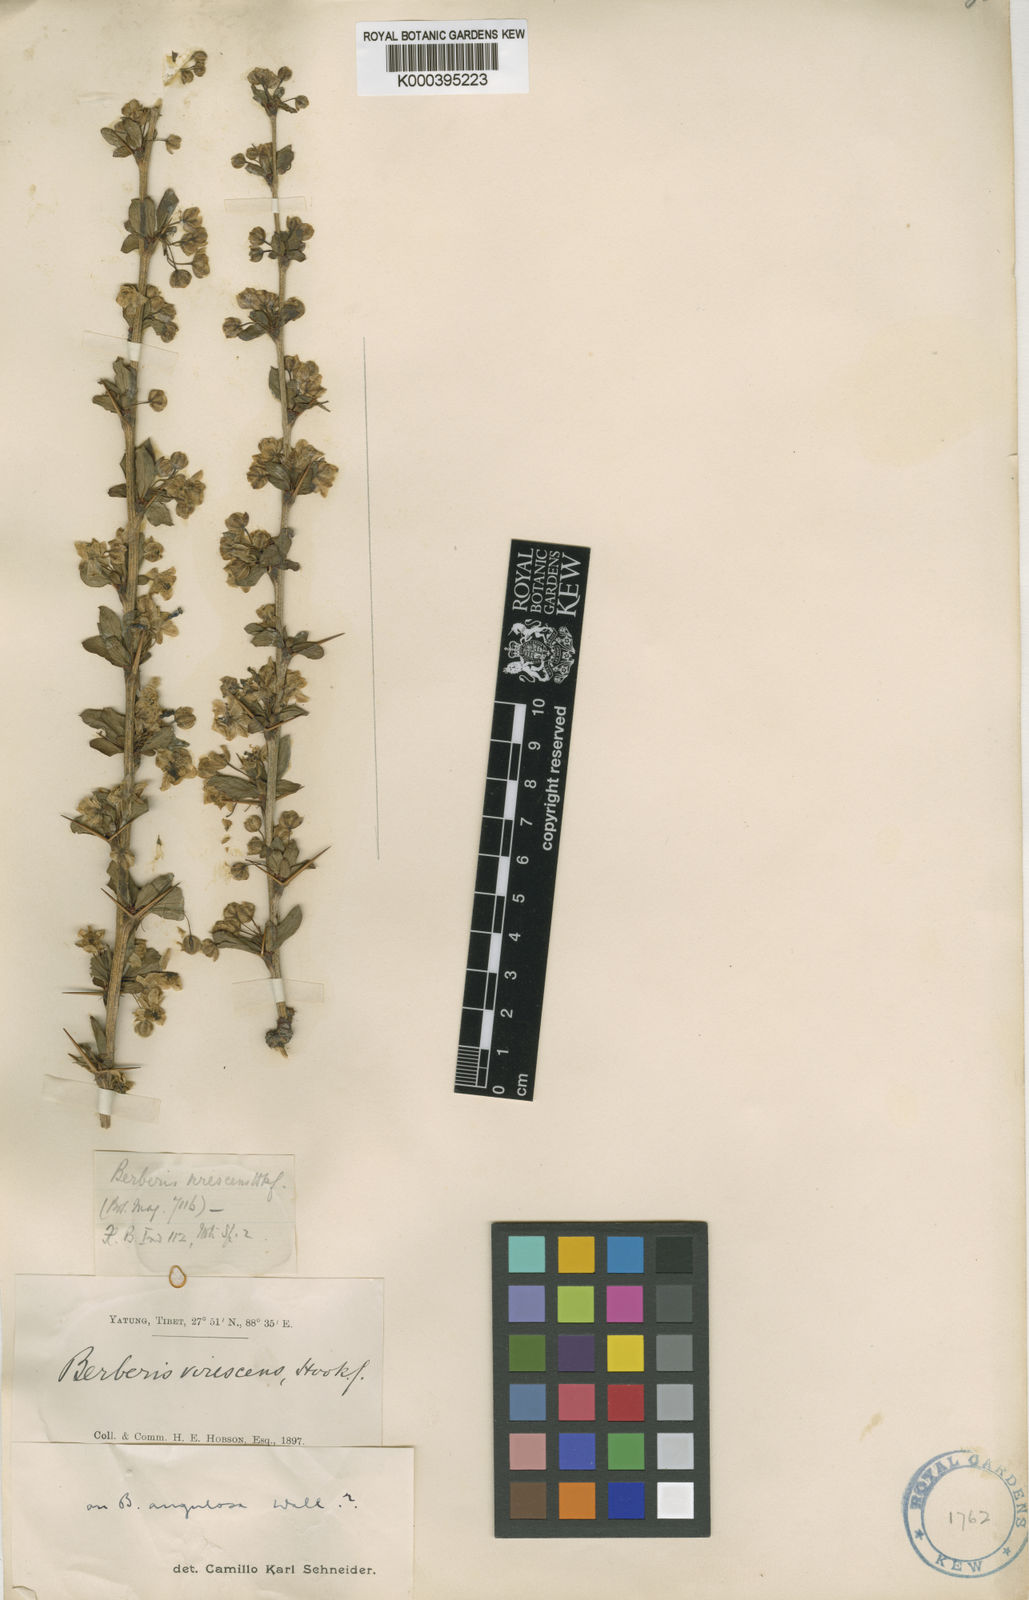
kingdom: Plantae
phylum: Tracheophyta
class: Magnoliopsida
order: Ranunculales
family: Berberidaceae
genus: Berberis
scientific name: Berberis cooperi
